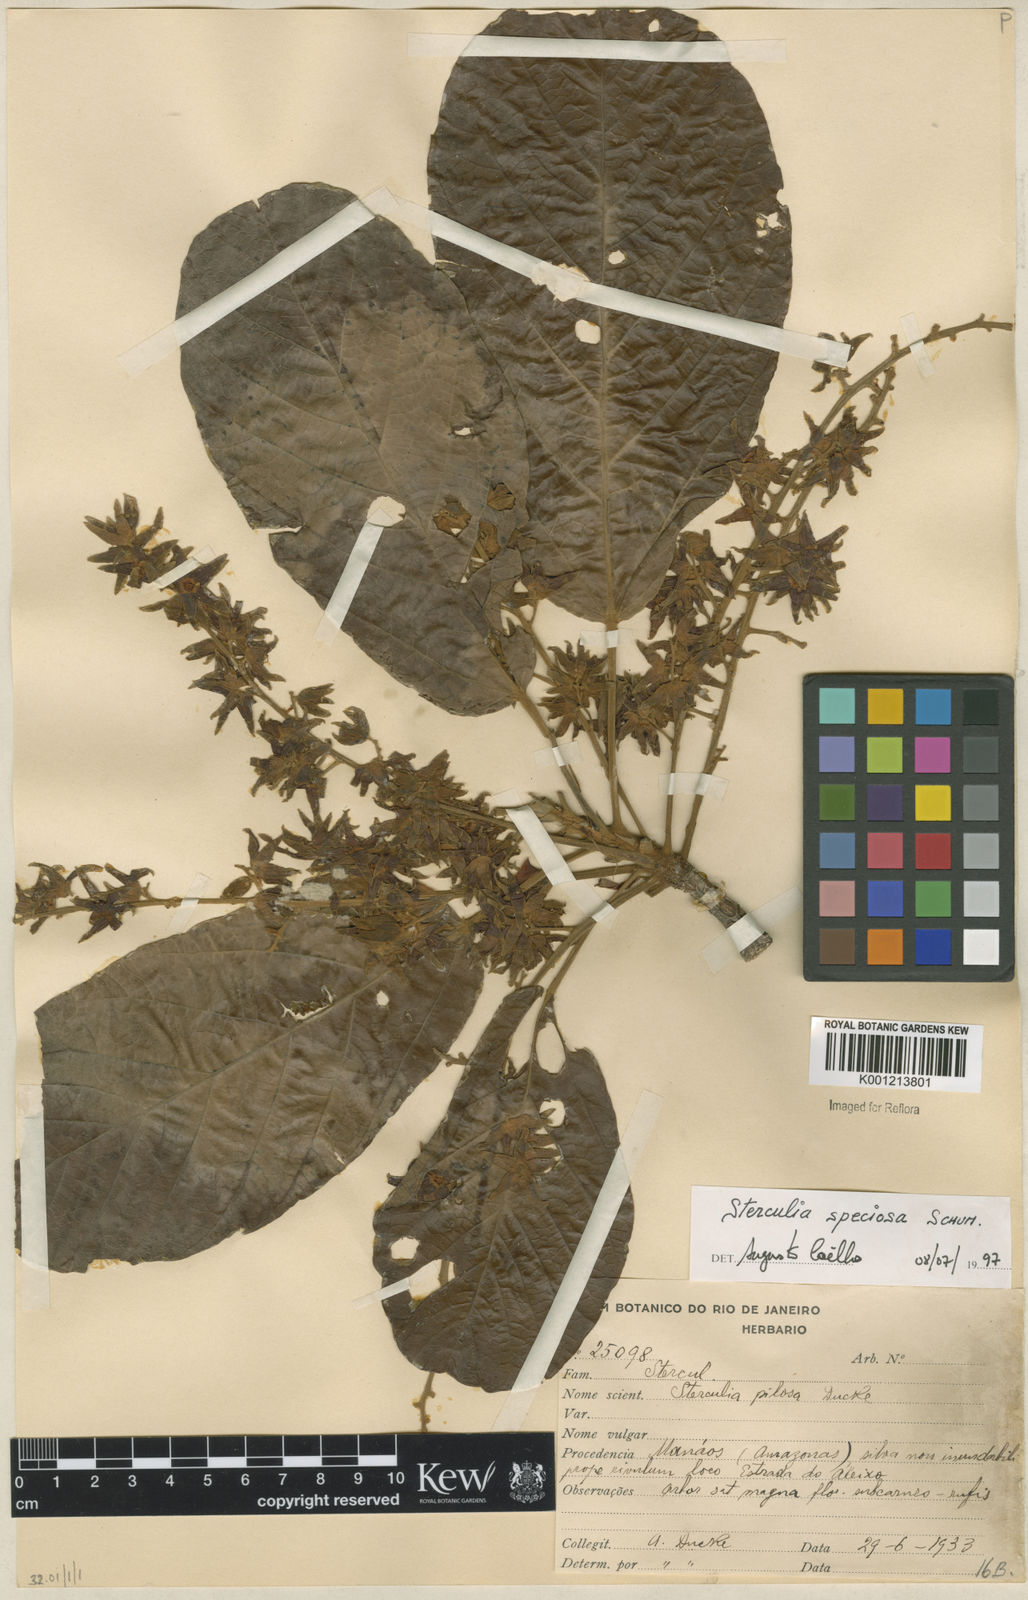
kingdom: Plantae
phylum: Tracheophyta
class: Magnoliopsida
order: Malvales
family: Malvaceae
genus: Sterculia
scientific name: Sterculia speciosa
